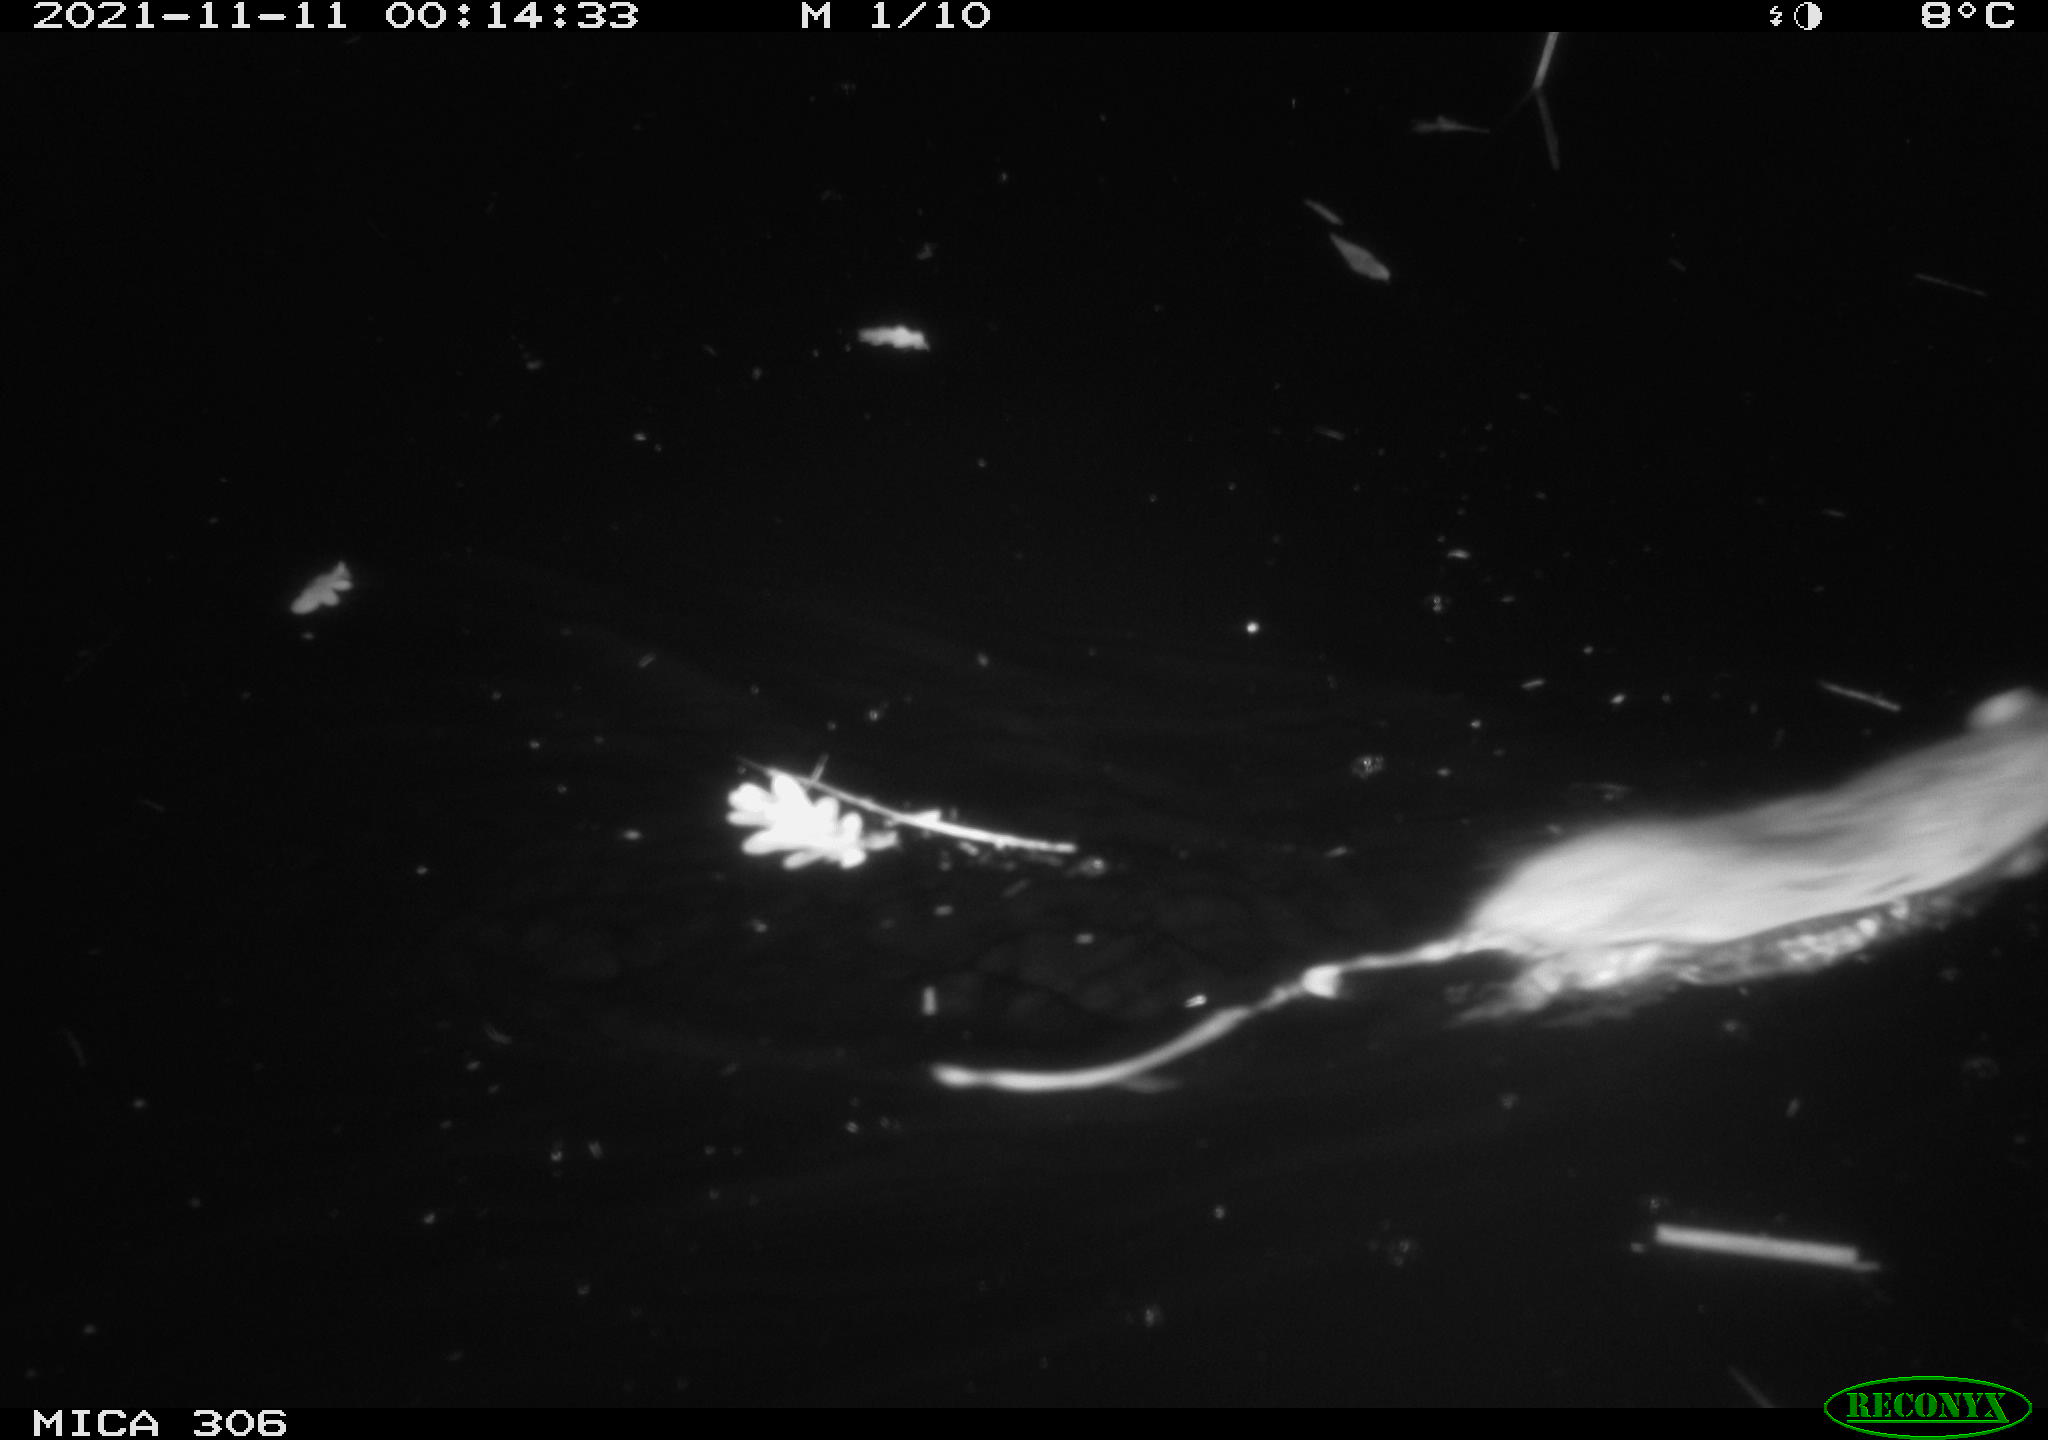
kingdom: Animalia
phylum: Chordata
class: Mammalia
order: Rodentia
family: Muridae
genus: Rattus
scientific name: Rattus norvegicus
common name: Brown rat
